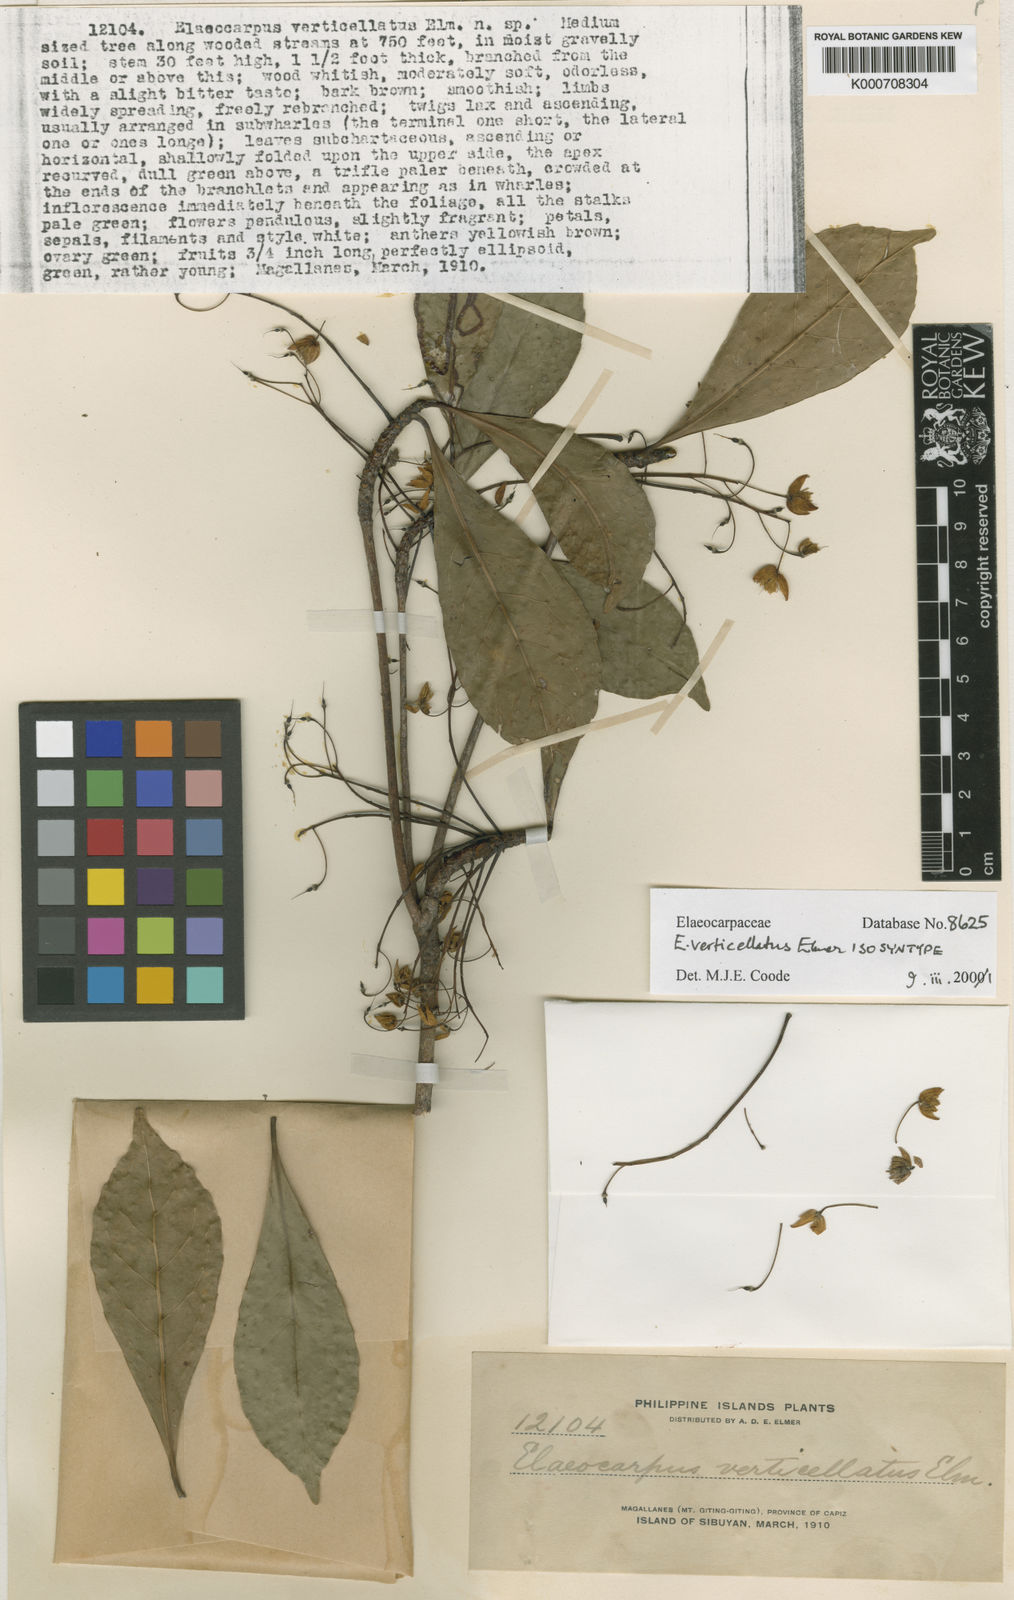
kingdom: Plantae
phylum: Tracheophyta
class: Magnoliopsida
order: Oxalidales
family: Elaeocarpaceae
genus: Elaeocarpus
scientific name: Elaeocarpus verticillatus
